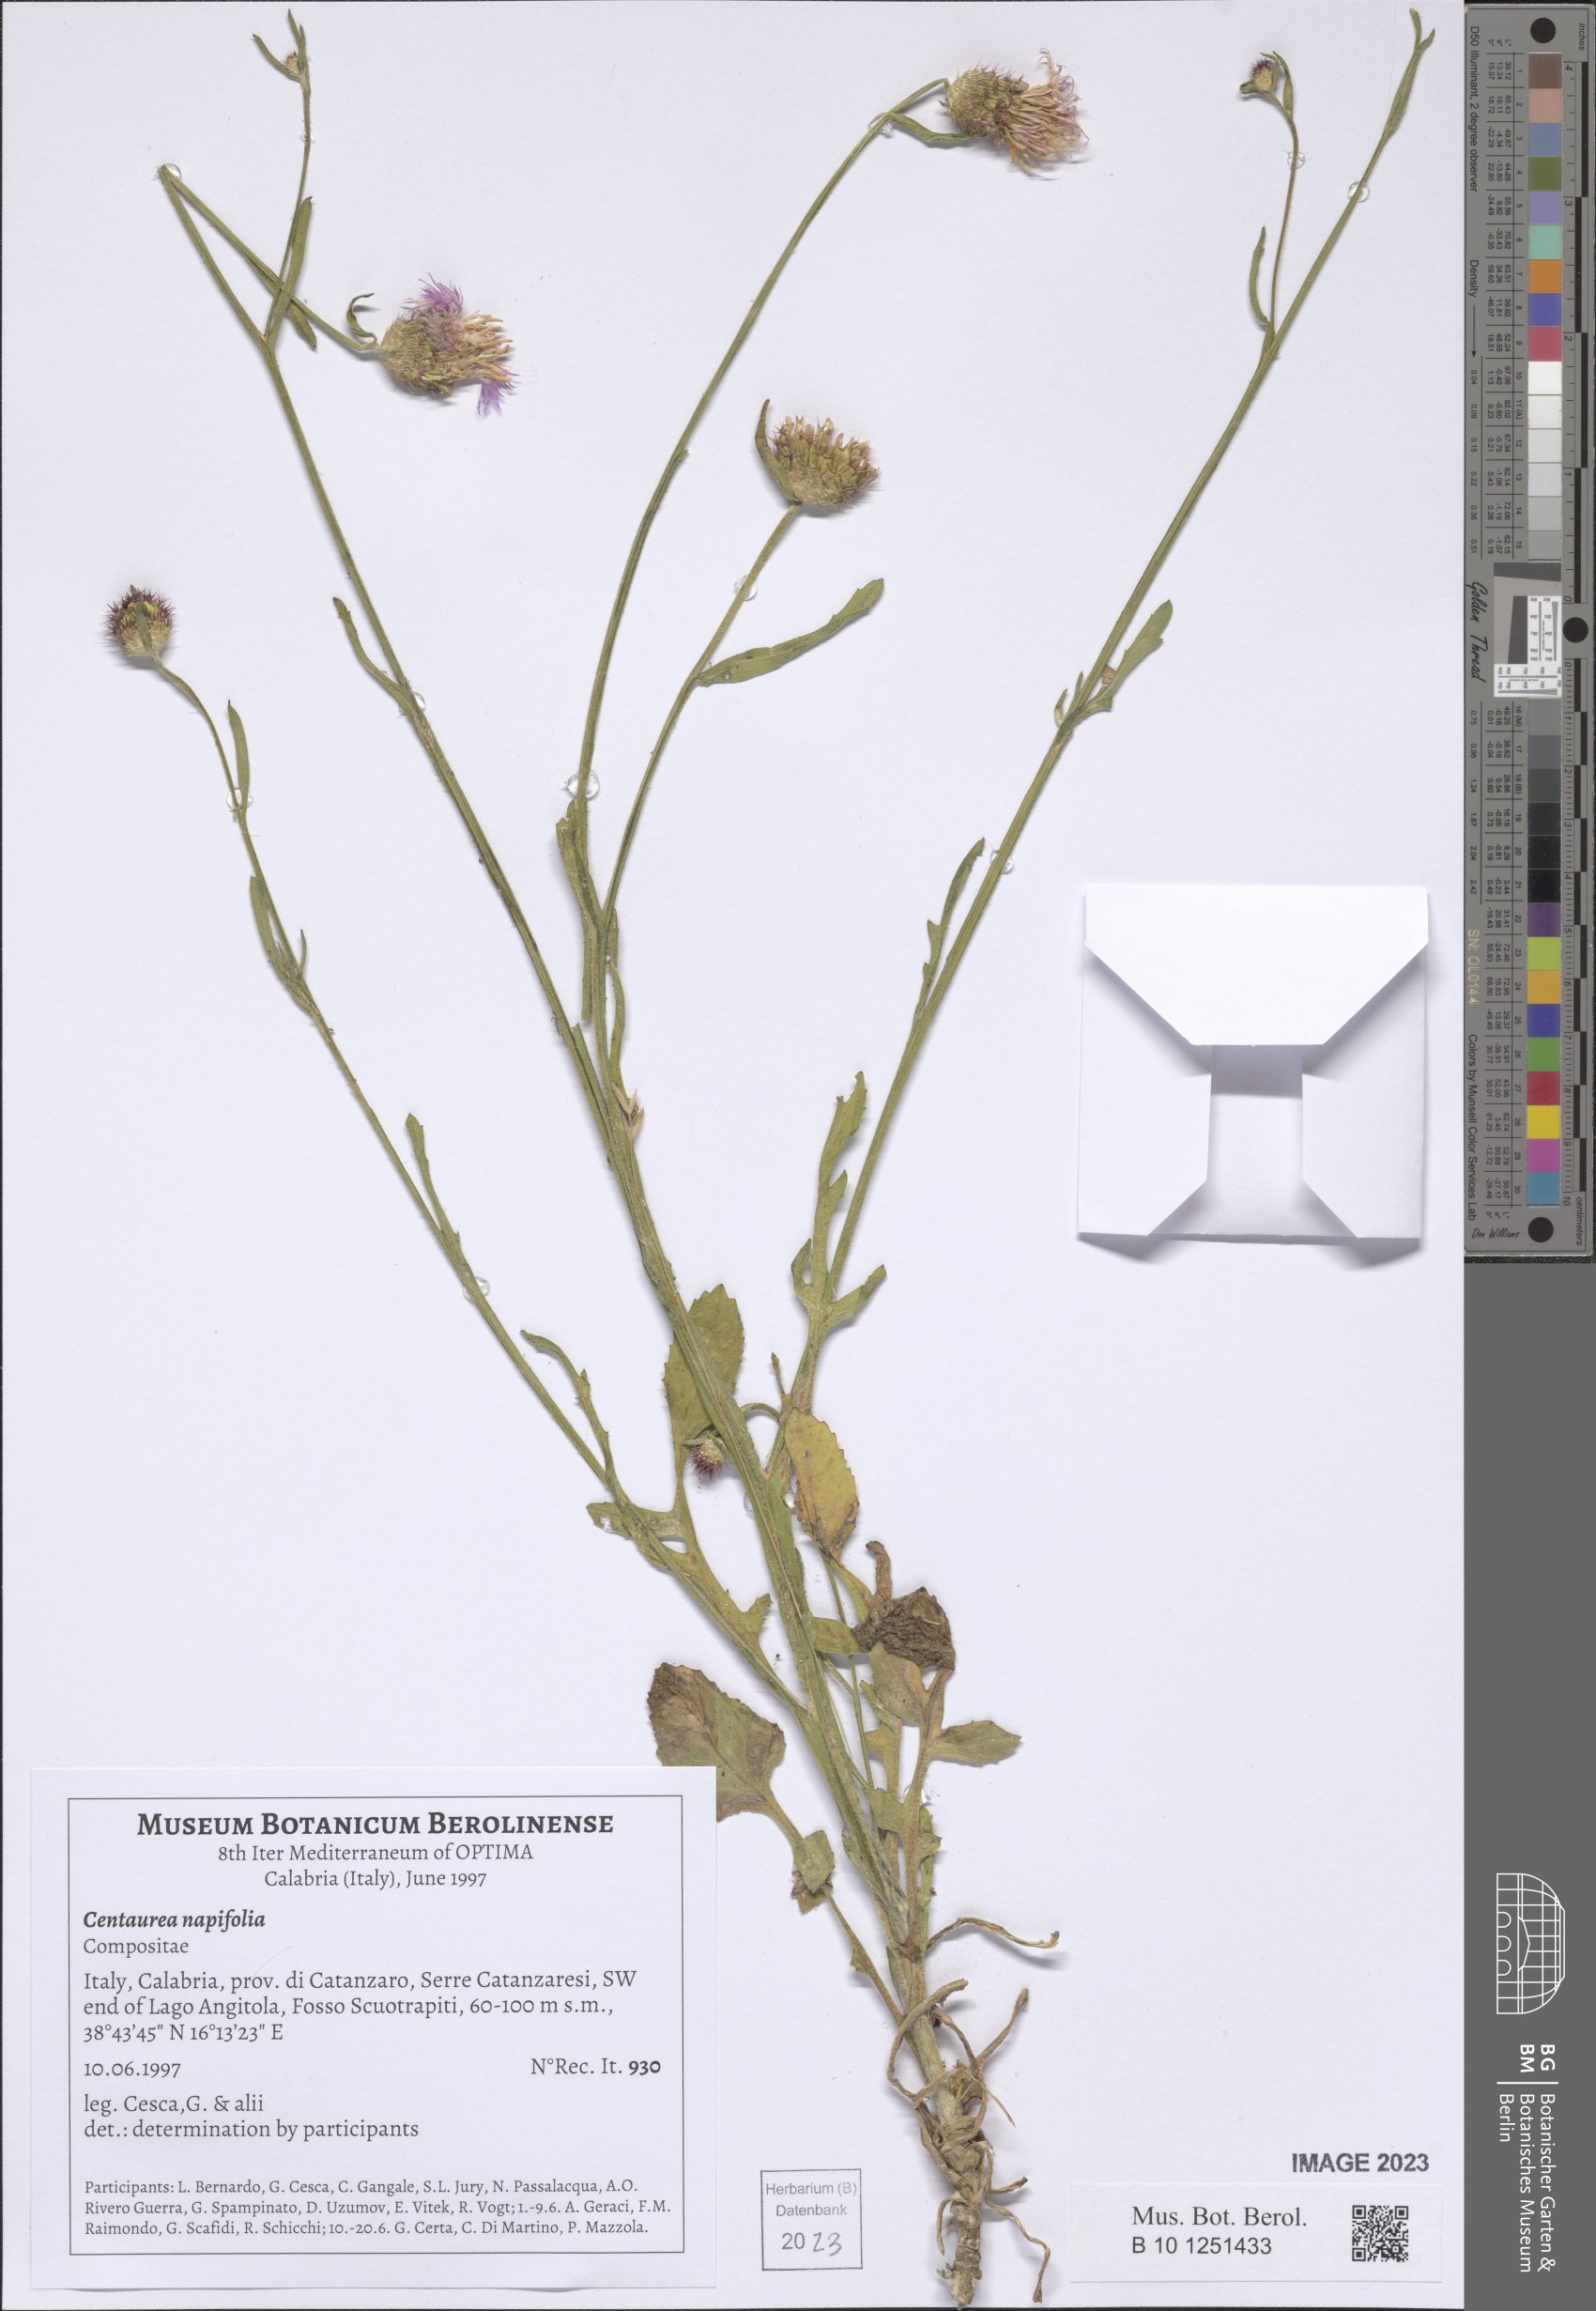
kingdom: Plantae
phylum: Tracheophyta
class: Magnoliopsida
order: Asterales
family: Asteraceae
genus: Centaurea
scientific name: Centaurea napifolia
